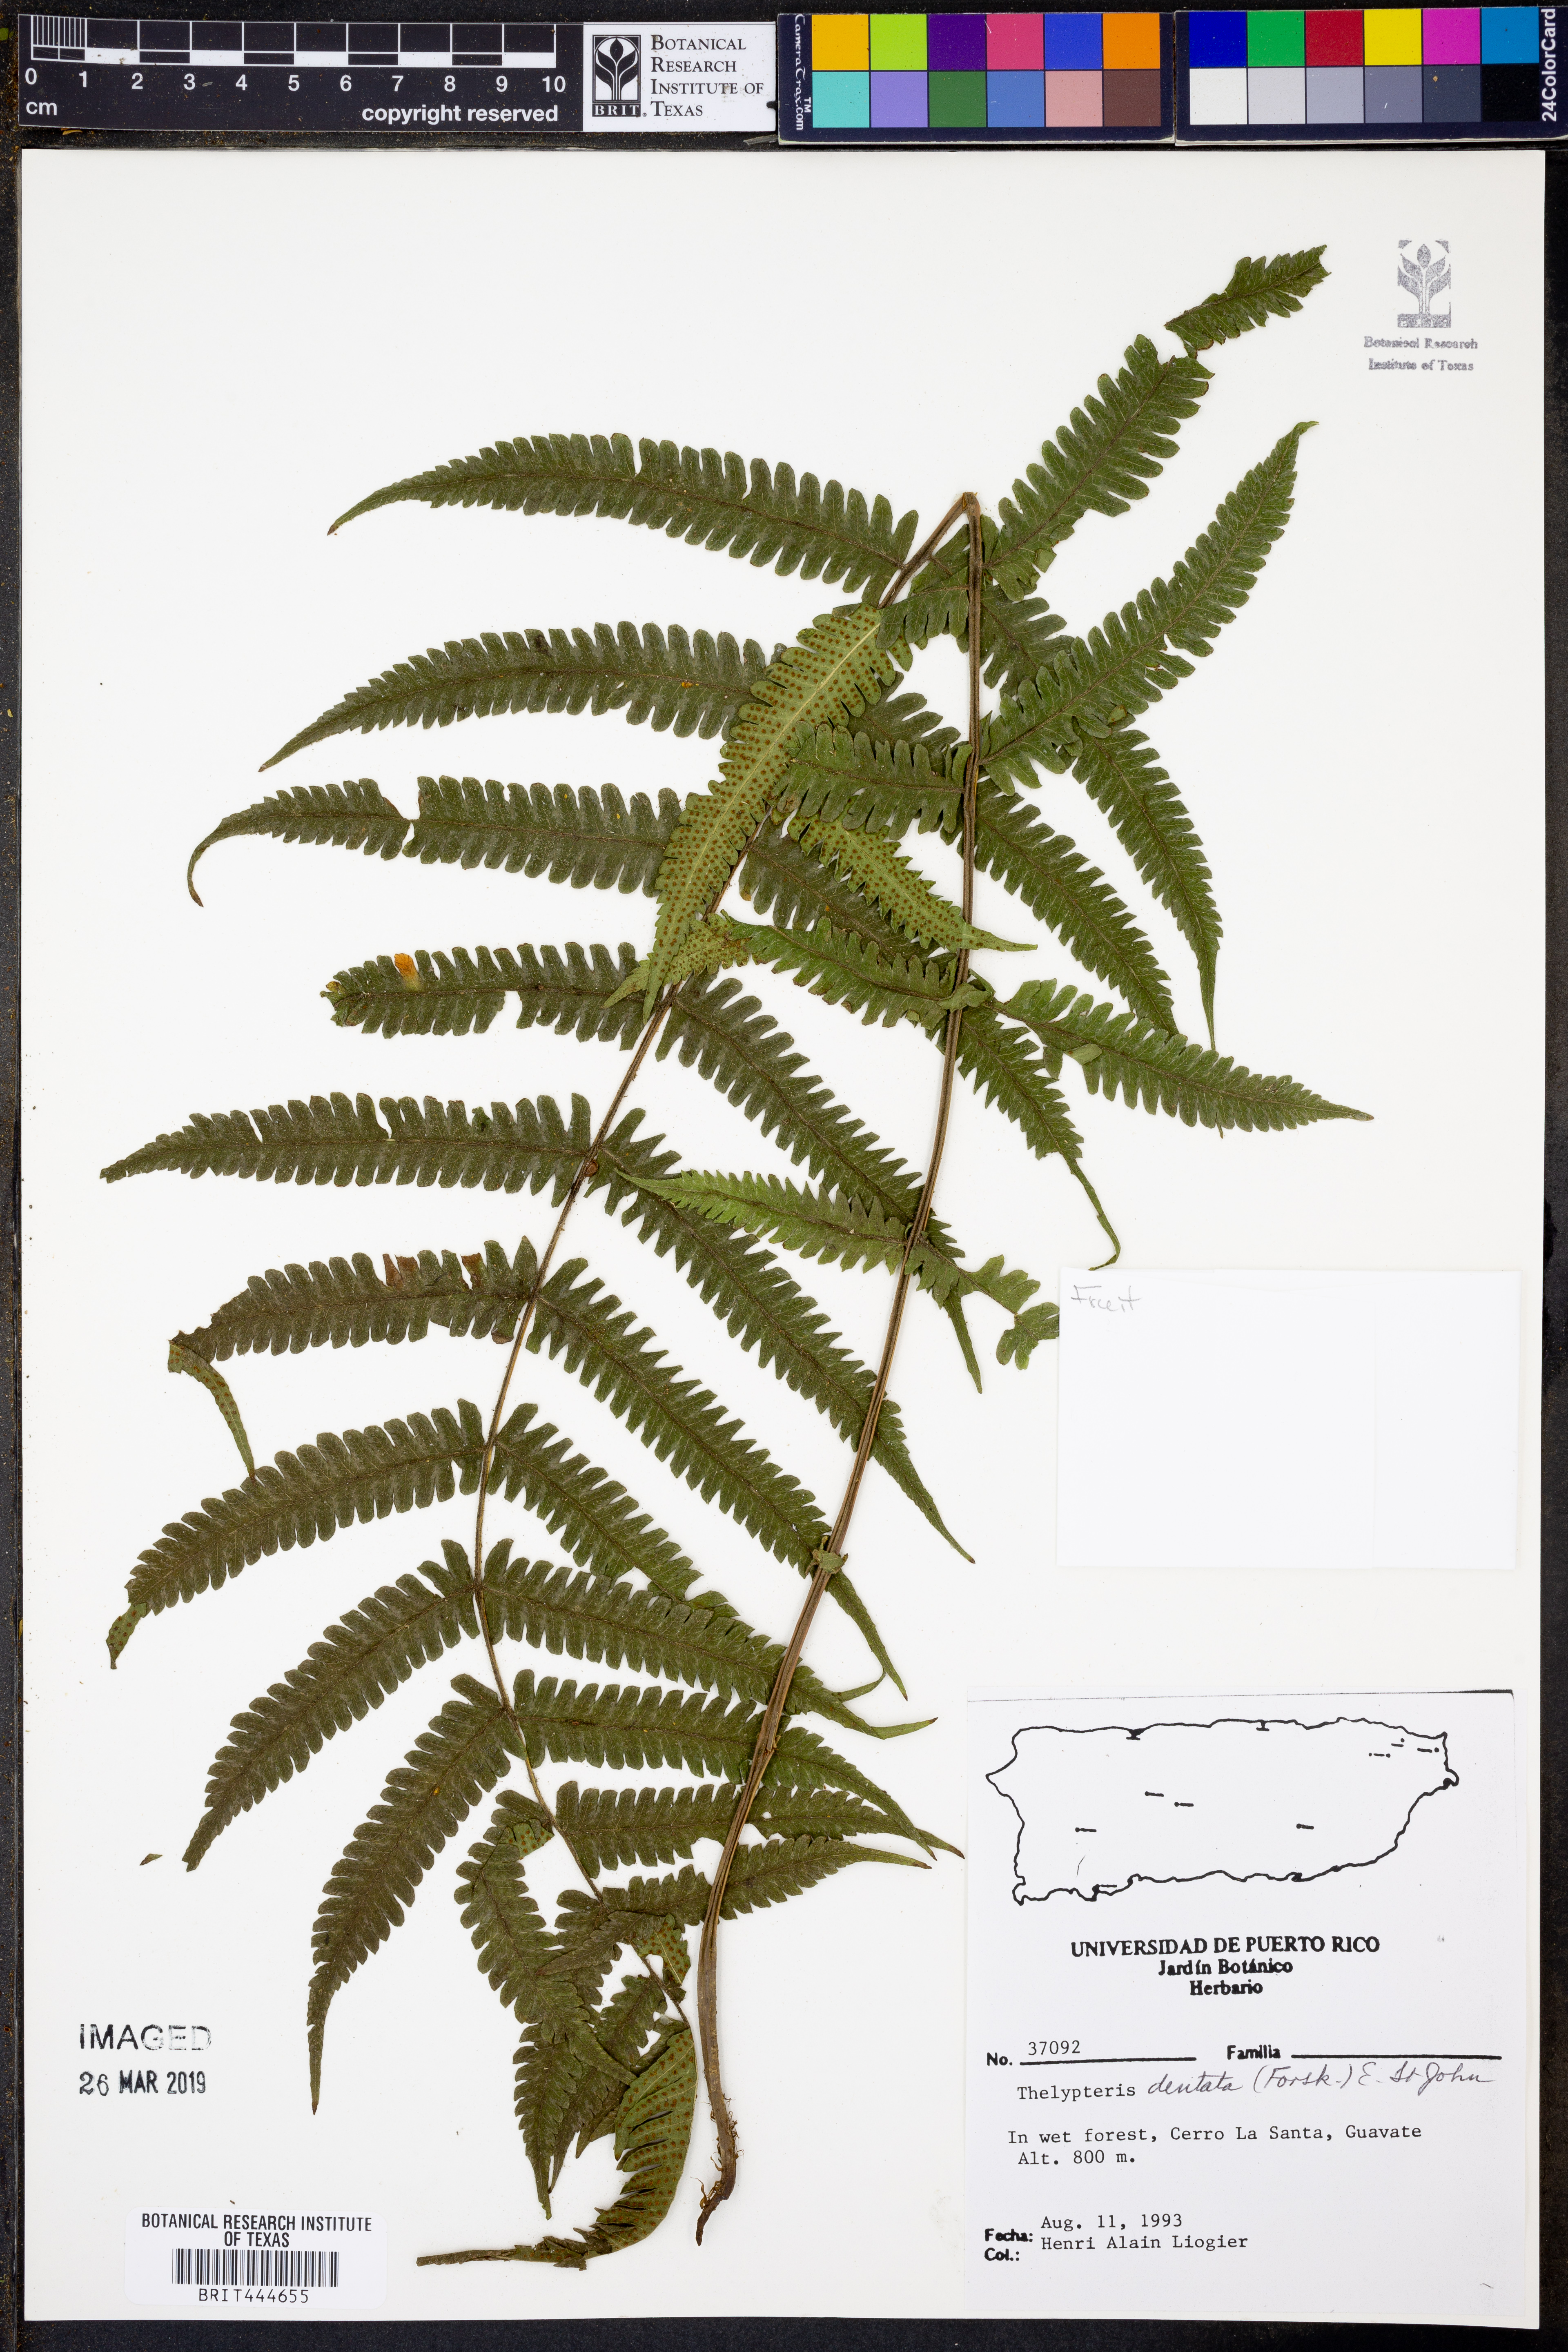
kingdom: Plantae
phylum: Tracheophyta
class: Polypodiopsida
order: Polypodiales
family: Thelypteridaceae
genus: Christella
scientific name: Christella dentata
